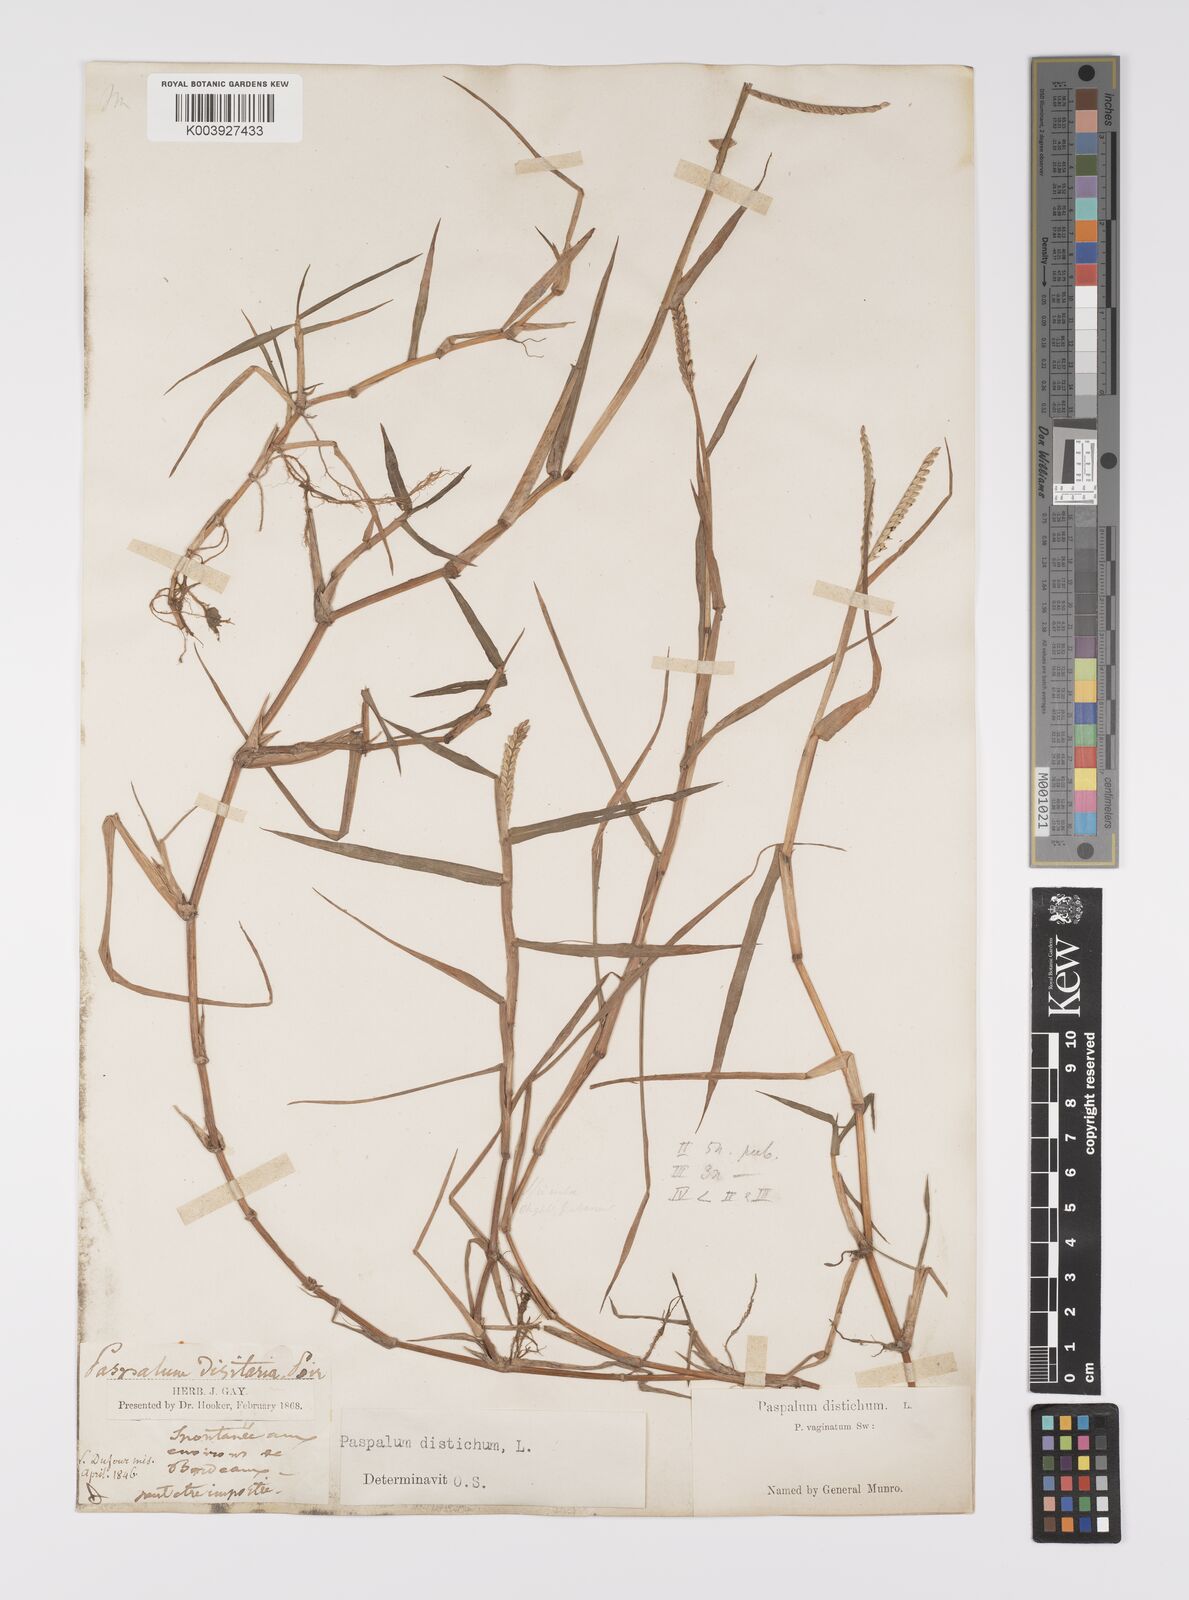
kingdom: Plantae
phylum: Tracheophyta
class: Liliopsida
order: Poales
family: Poaceae
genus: Paspalum
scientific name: Paspalum distichum
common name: Knotgrass
